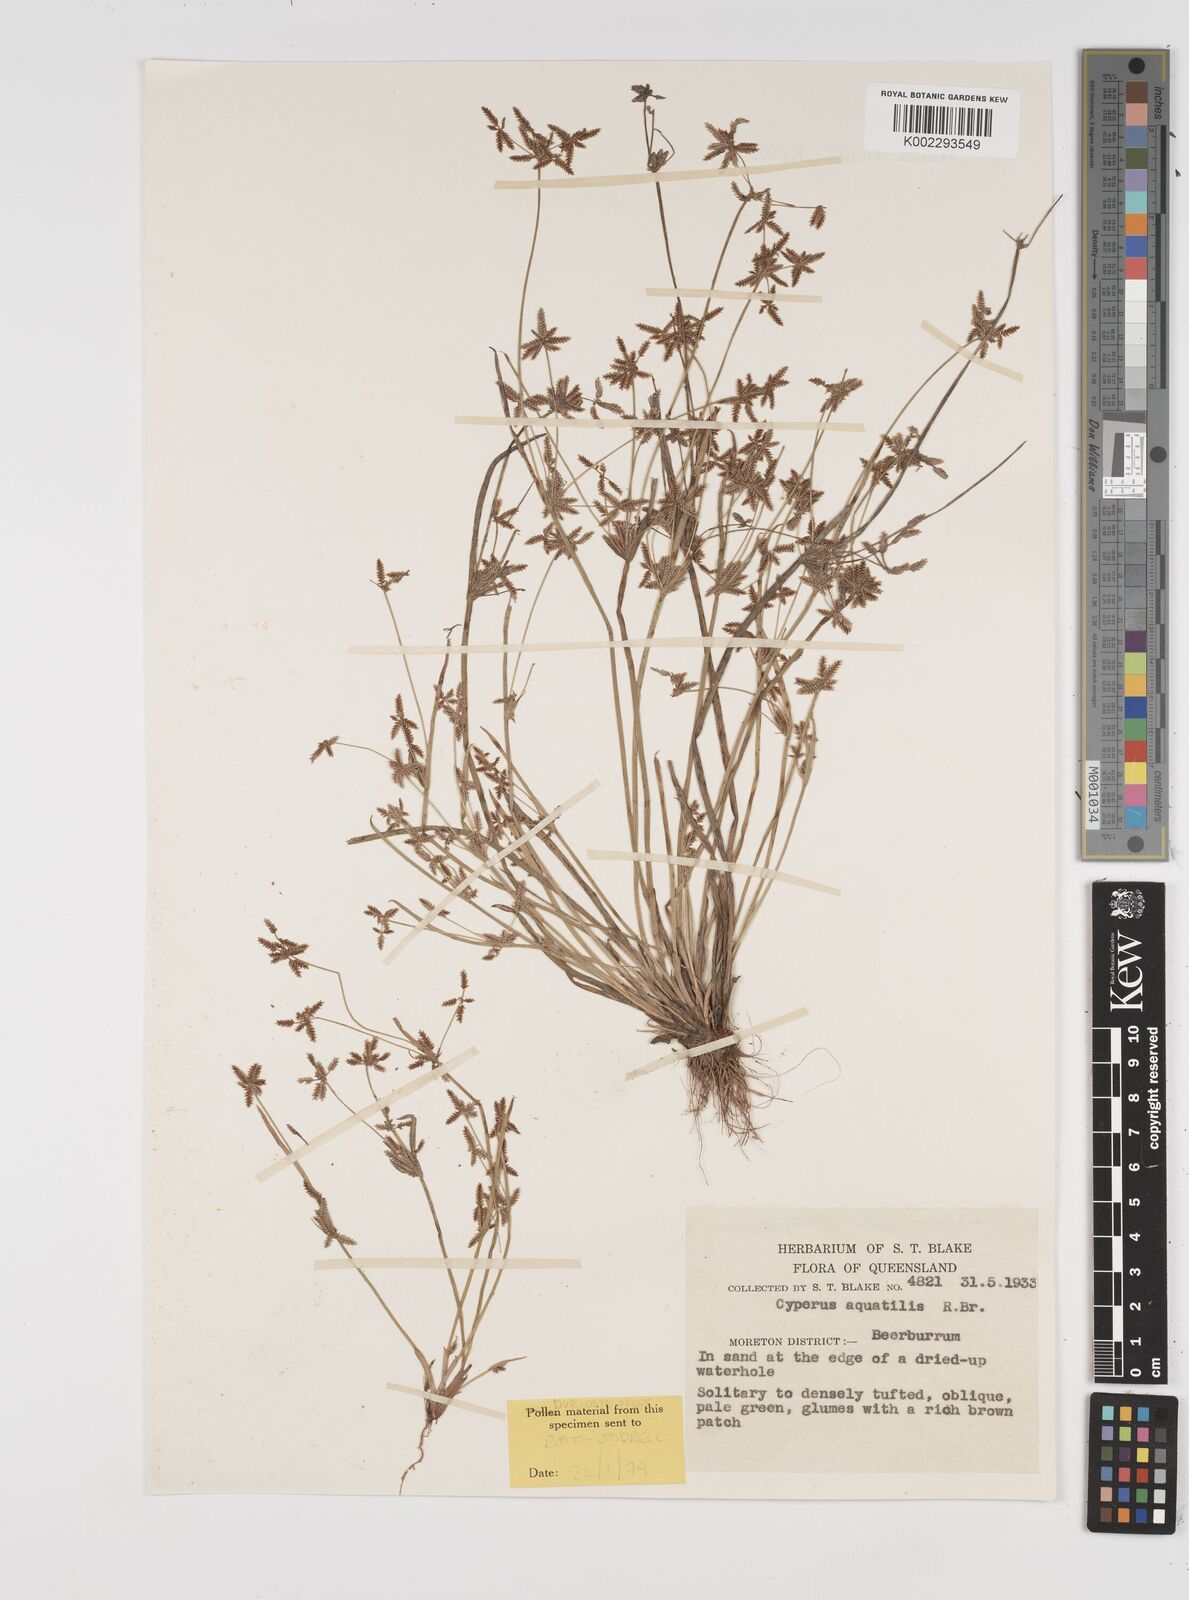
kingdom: Plantae
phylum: Tracheophyta
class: Liliopsida
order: Poales
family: Cyperaceae
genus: Cyperus
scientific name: Cyperus aquatilis
